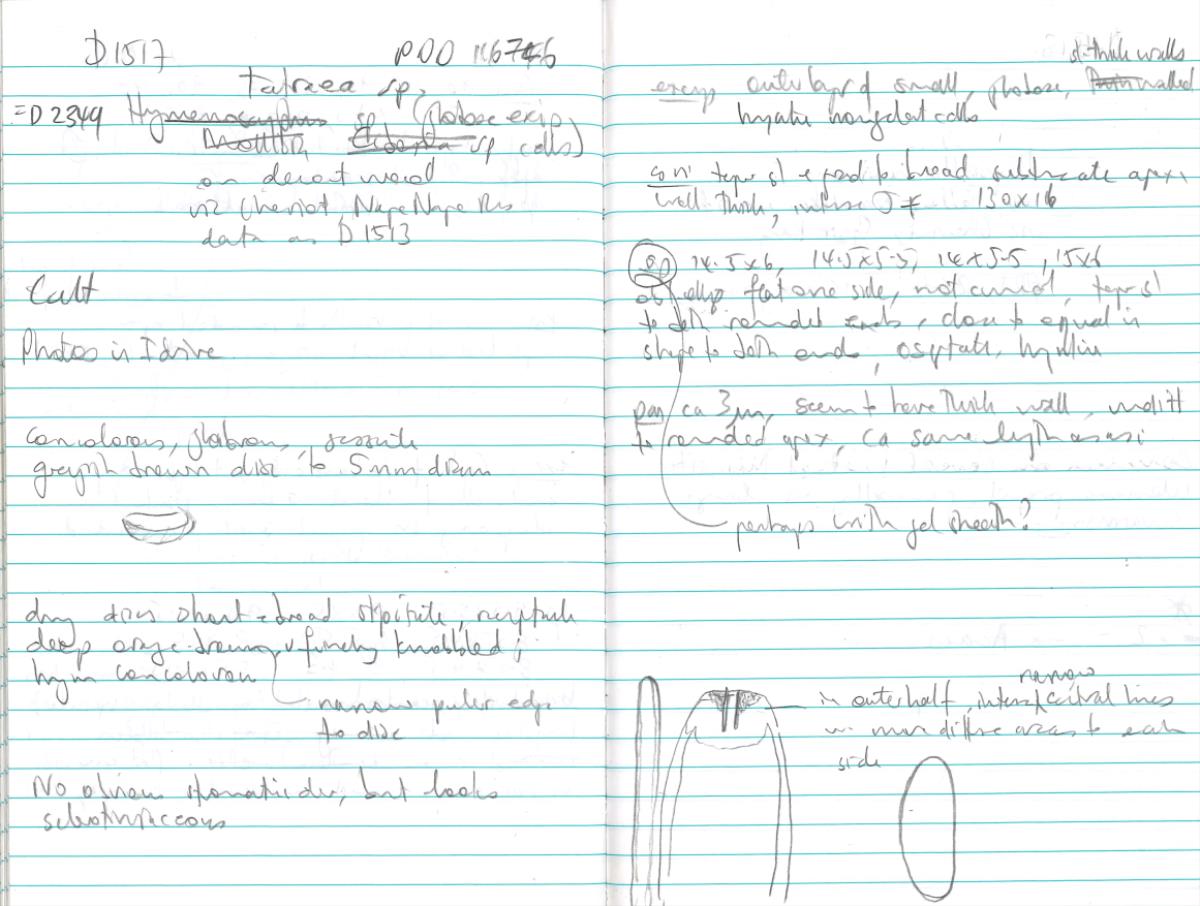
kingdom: Fungi
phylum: Ascomycota
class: Leotiomycetes
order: Helotiales
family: Helotiaceae
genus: Tatraea
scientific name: Tatraea
